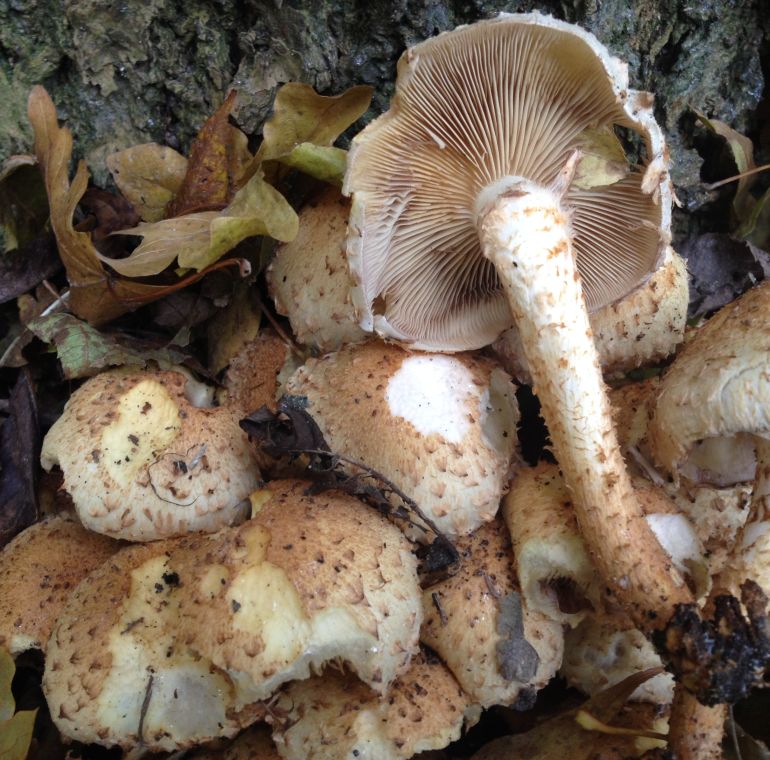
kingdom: Fungi
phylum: Basidiomycota
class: Agaricomycetes
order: Agaricales
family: Strophariaceae
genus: Pholiota
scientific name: Pholiota squarrosa
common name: krumskællet skælhat
